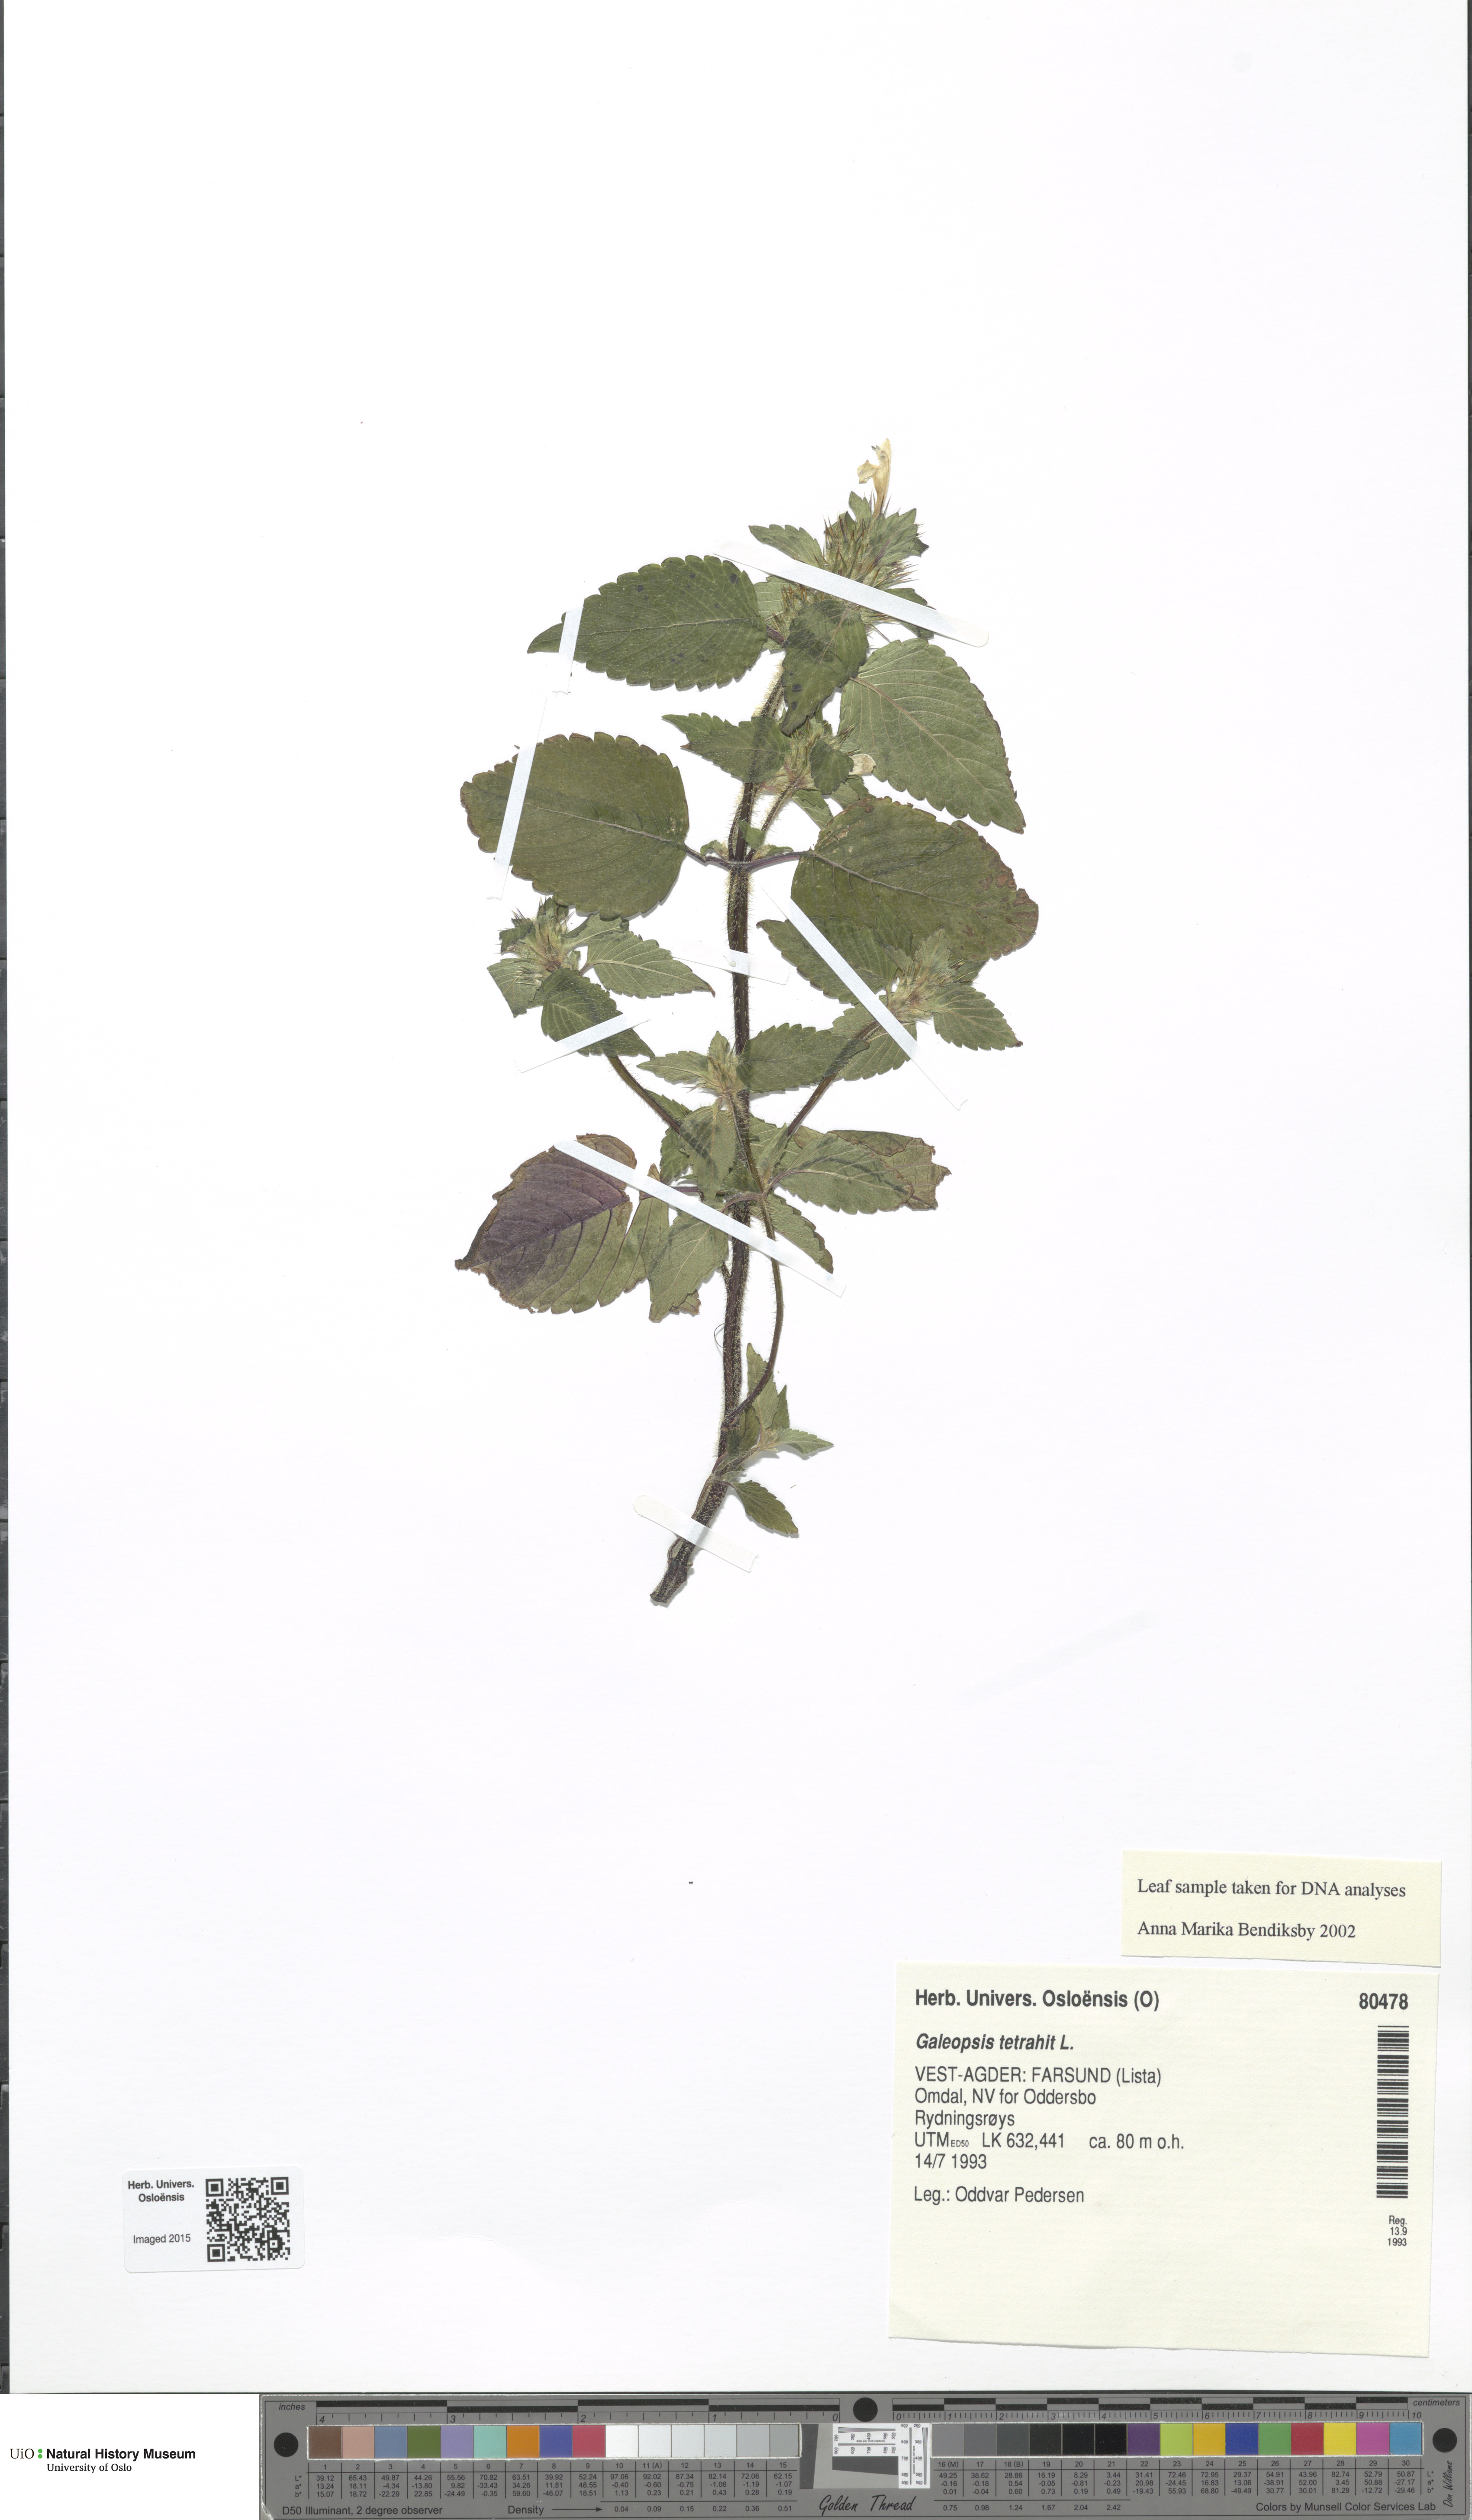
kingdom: Plantae
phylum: Tracheophyta
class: Magnoliopsida
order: Lamiales
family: Lamiaceae
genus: Galeopsis
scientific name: Galeopsis tetrahit
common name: Common hemp-nettle
